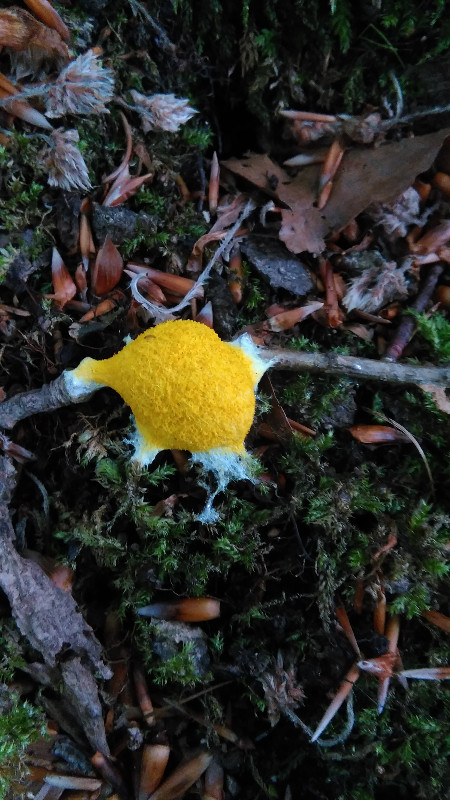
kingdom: Protozoa
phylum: Mycetozoa
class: Myxomycetes
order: Physarales
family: Physaraceae
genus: Fuligo
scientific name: Fuligo septica
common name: gul troldsmør
